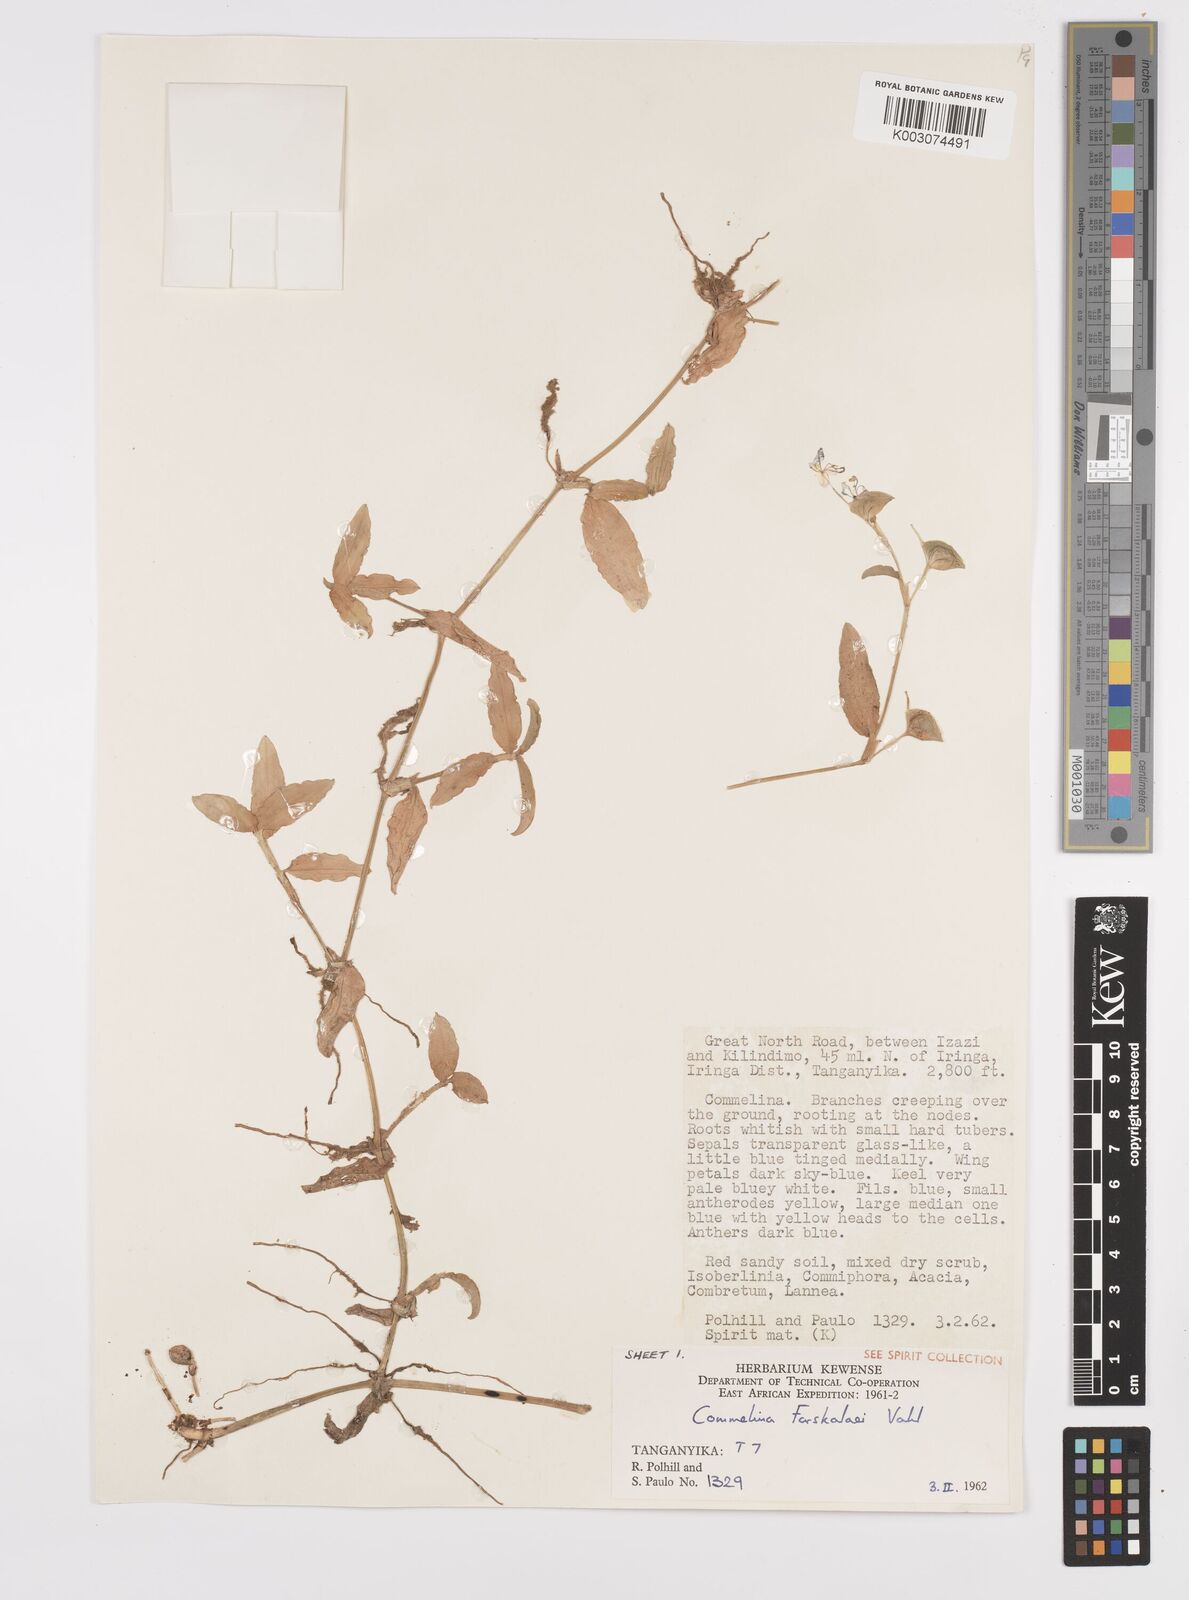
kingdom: Plantae
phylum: Tracheophyta
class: Liliopsida
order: Commelinales
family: Commelinaceae
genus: Commelina
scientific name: Commelina
